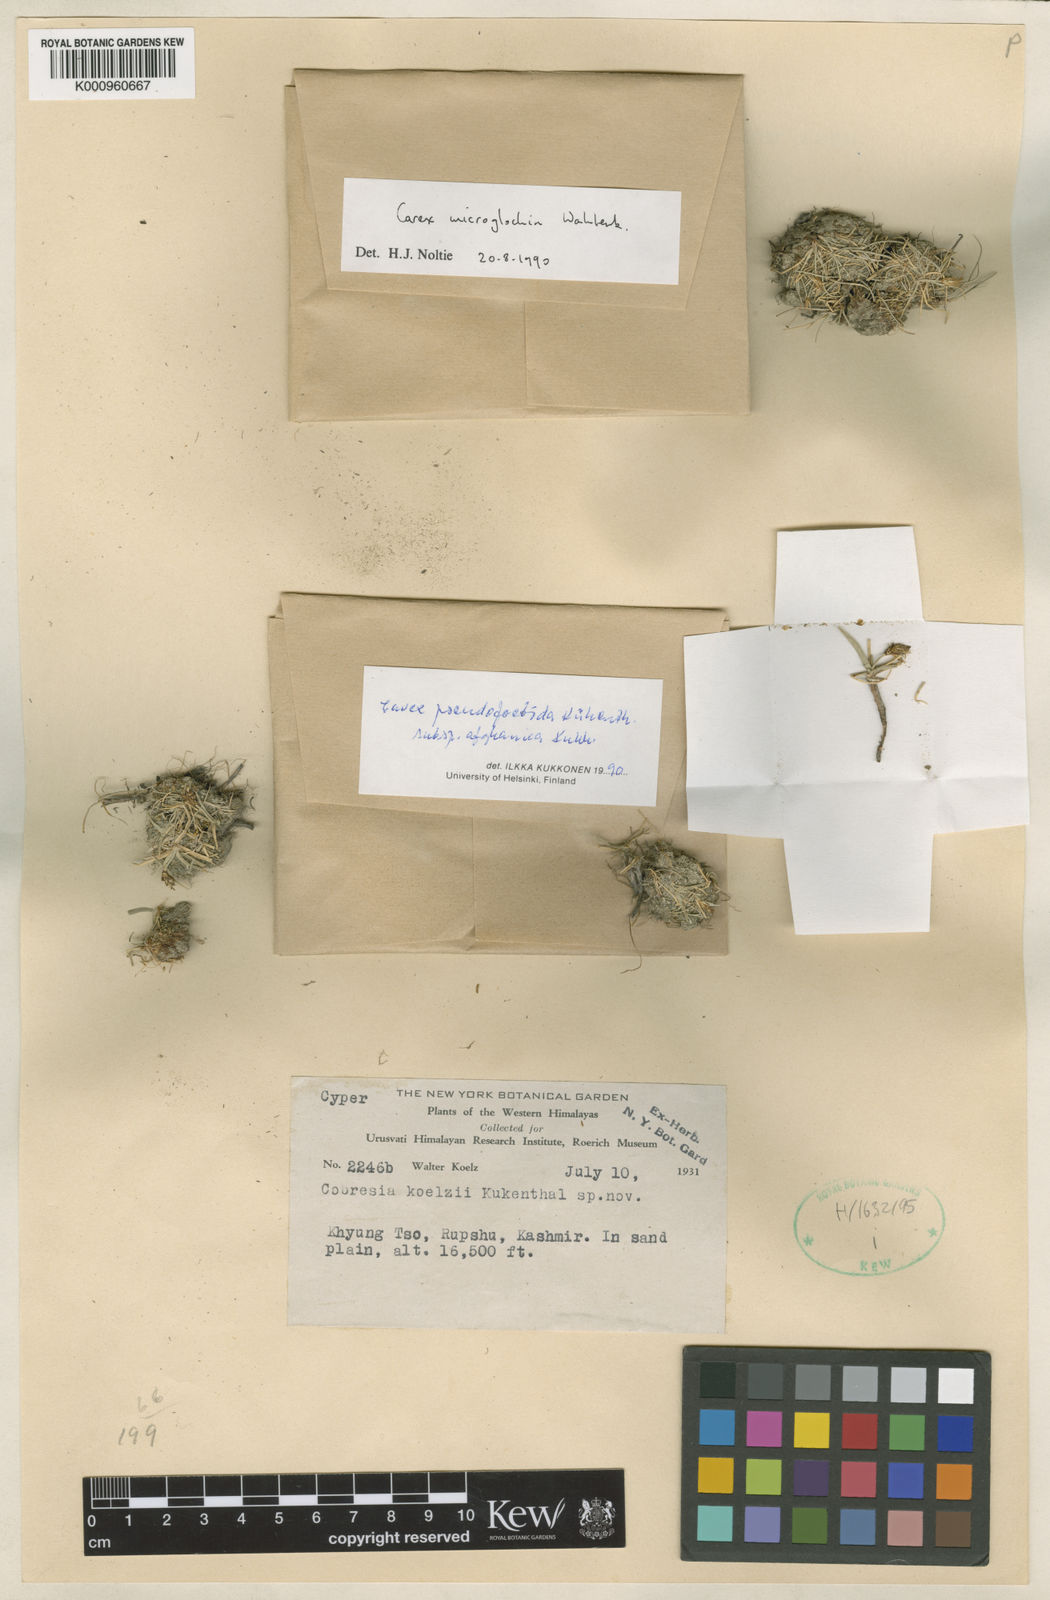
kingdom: Plantae
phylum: Tracheophyta
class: Liliopsida
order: Poales
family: Cyperaceae
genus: Carex
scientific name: Carex microglochin
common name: Bristle sedge
